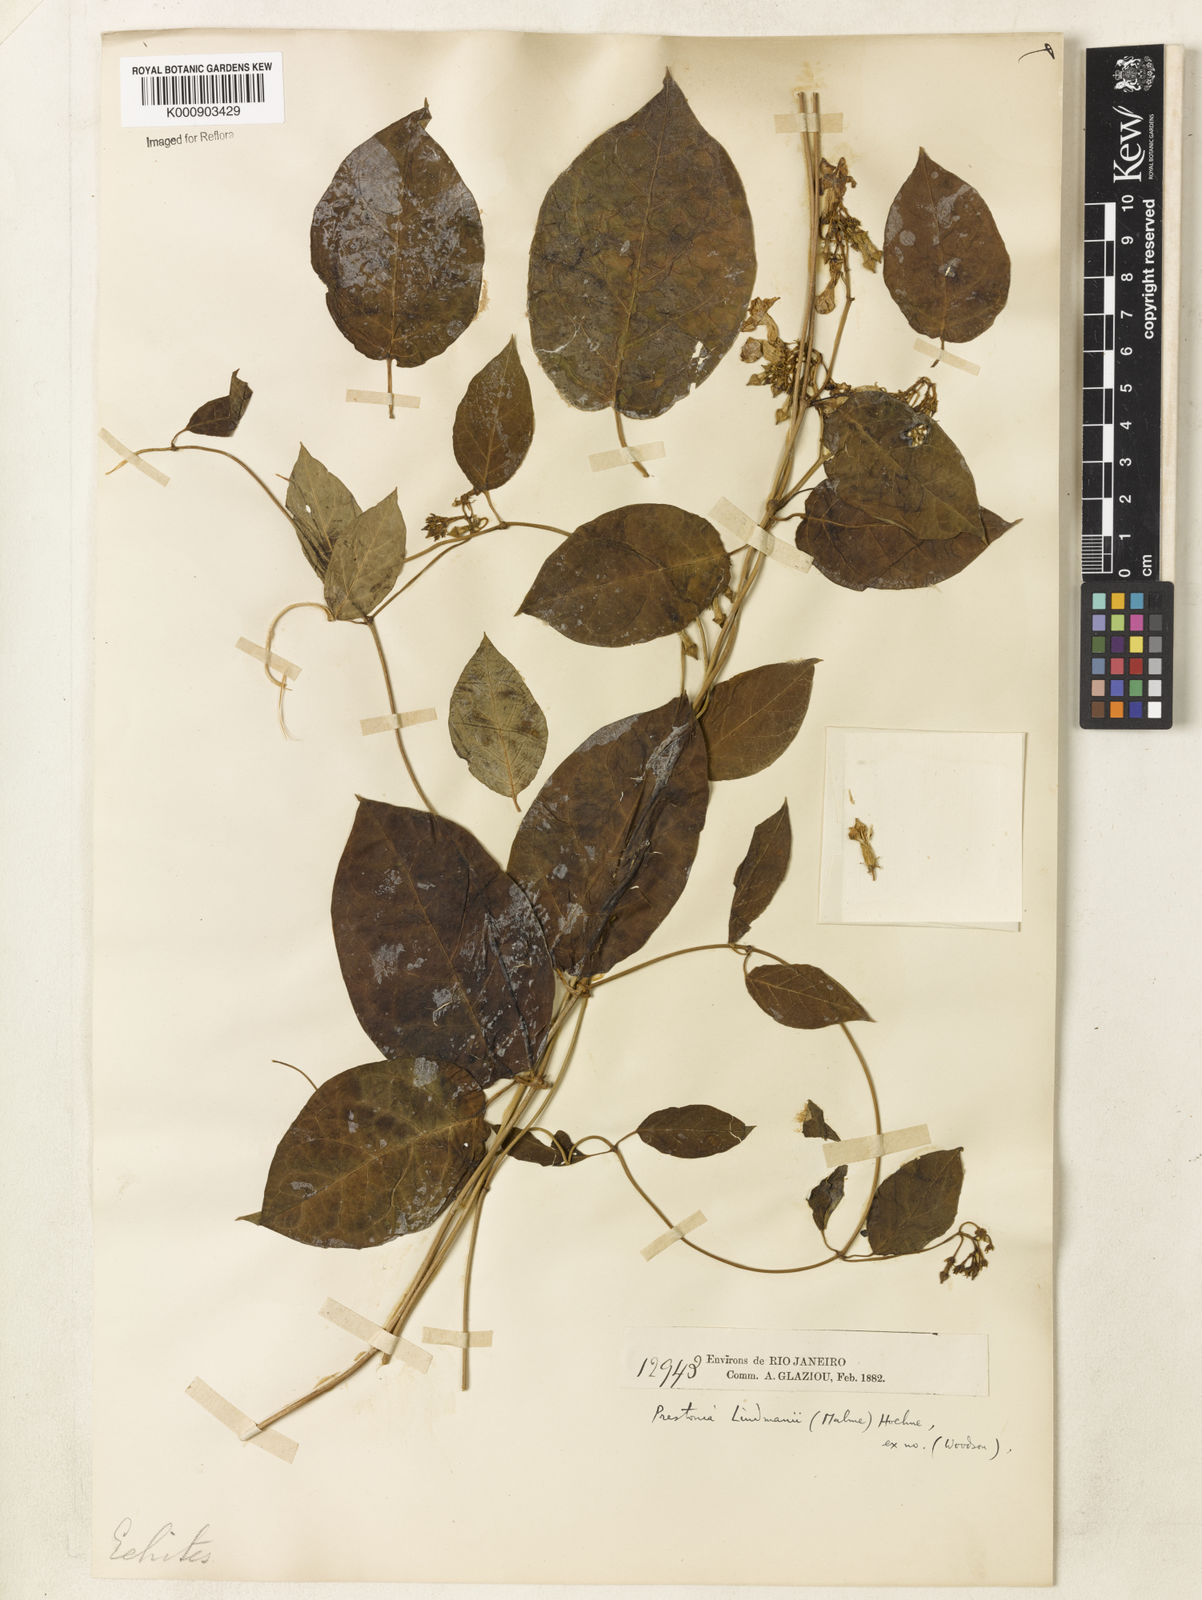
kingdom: Plantae
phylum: Tracheophyta
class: Magnoliopsida
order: Gentianales
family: Apocynaceae
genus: Prestonia
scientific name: Prestonia lindmanii
